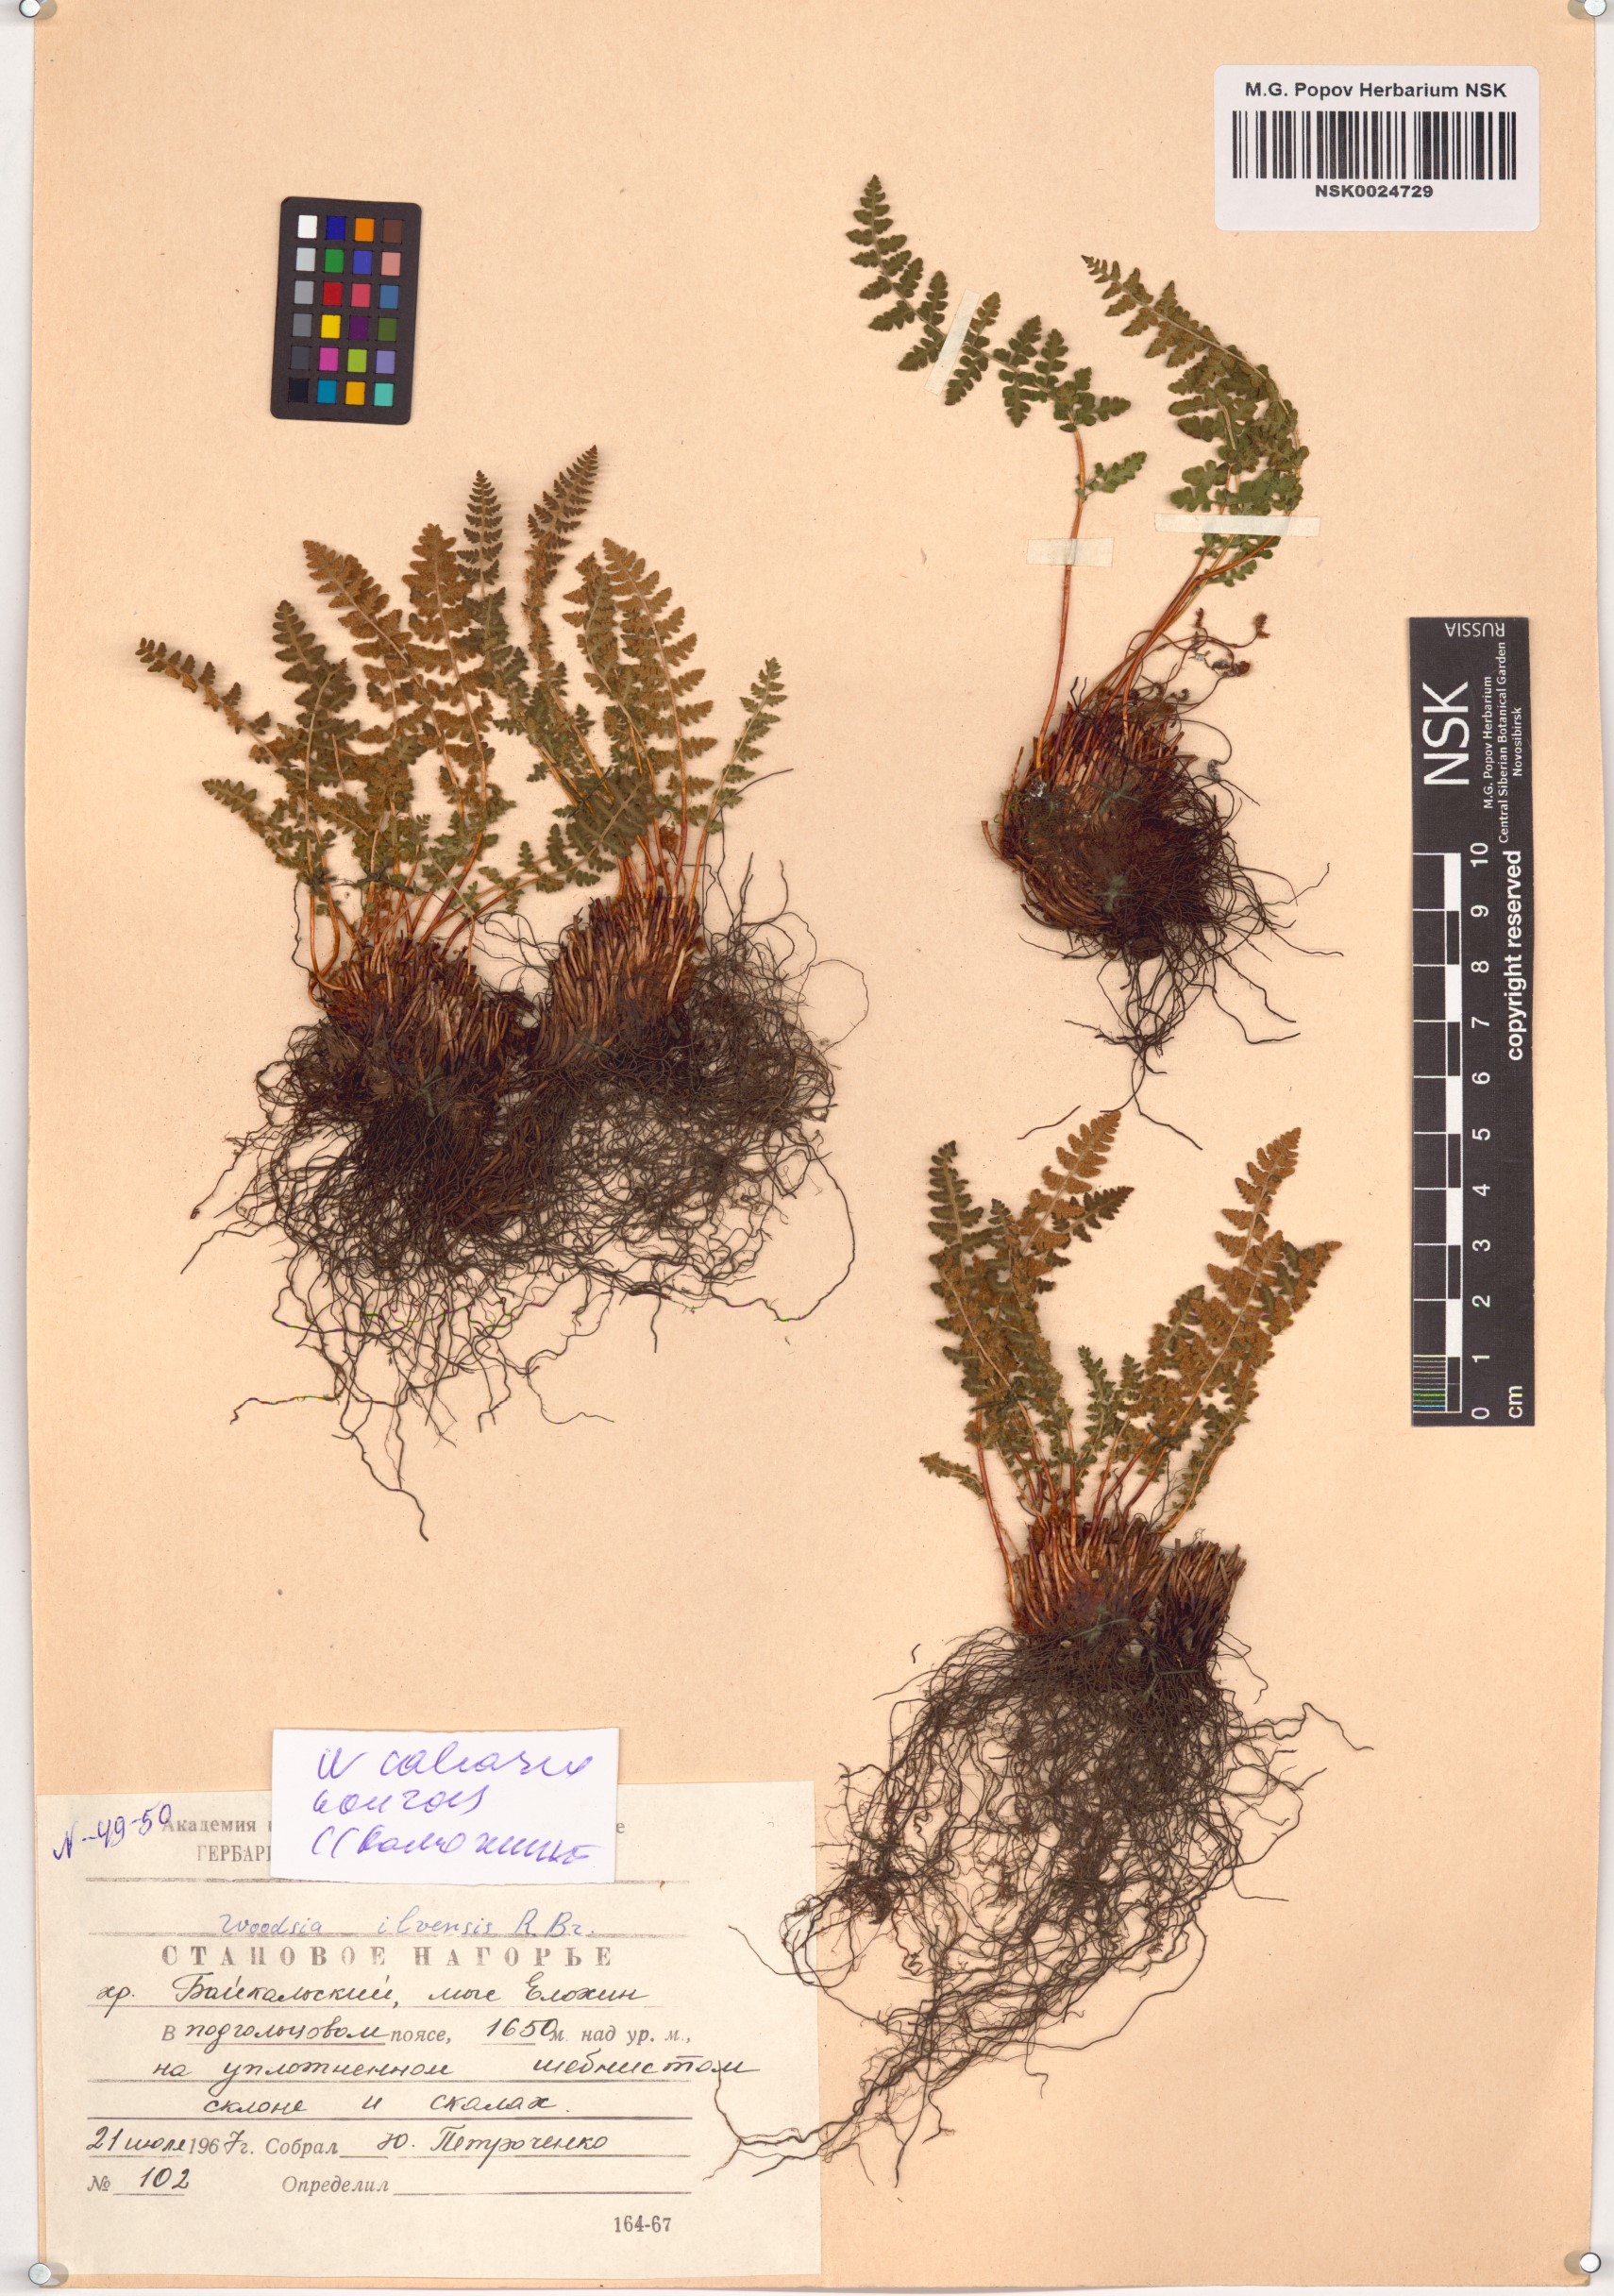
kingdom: Plantae
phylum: Tracheophyta
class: Polypodiopsida
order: Polypodiales
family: Woodsiaceae
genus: Woodsia
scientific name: Woodsia calcarea
